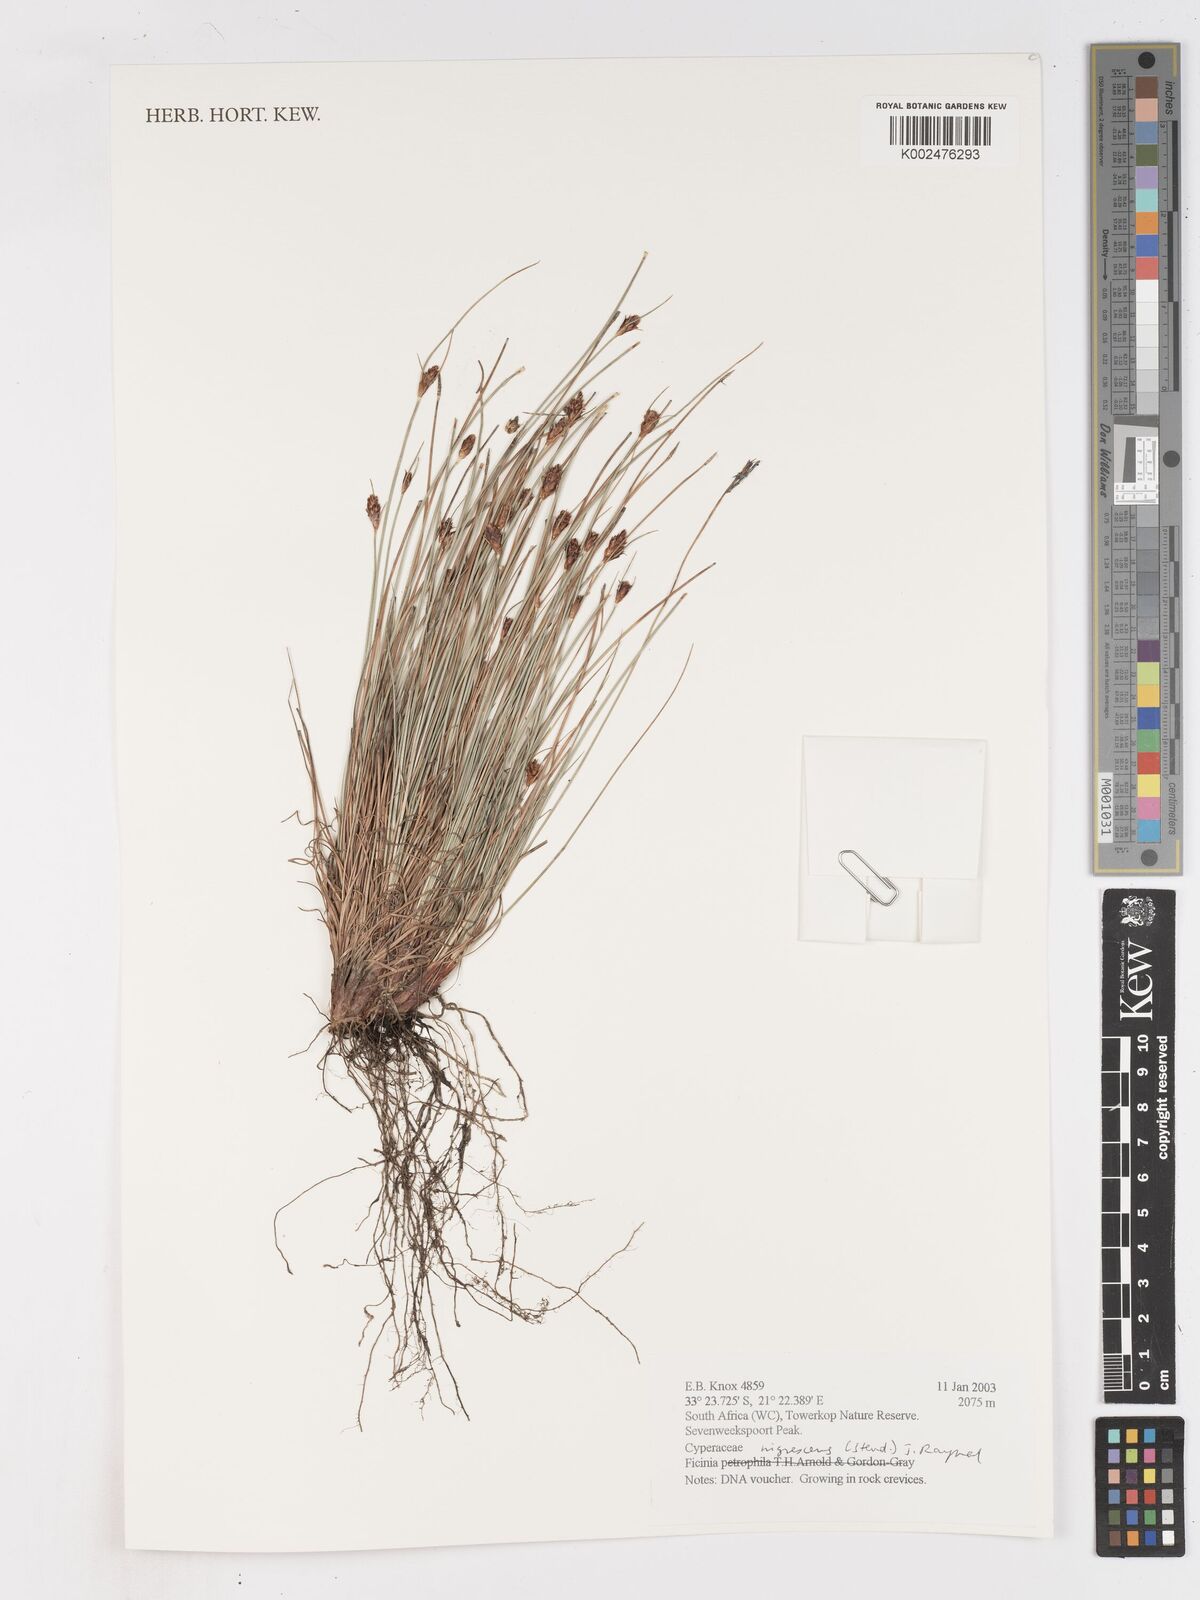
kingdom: Plantae
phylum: Tracheophyta
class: Liliopsida
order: Poales
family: Cyperaceae
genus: Ficinia
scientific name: Ficinia nigrescens
